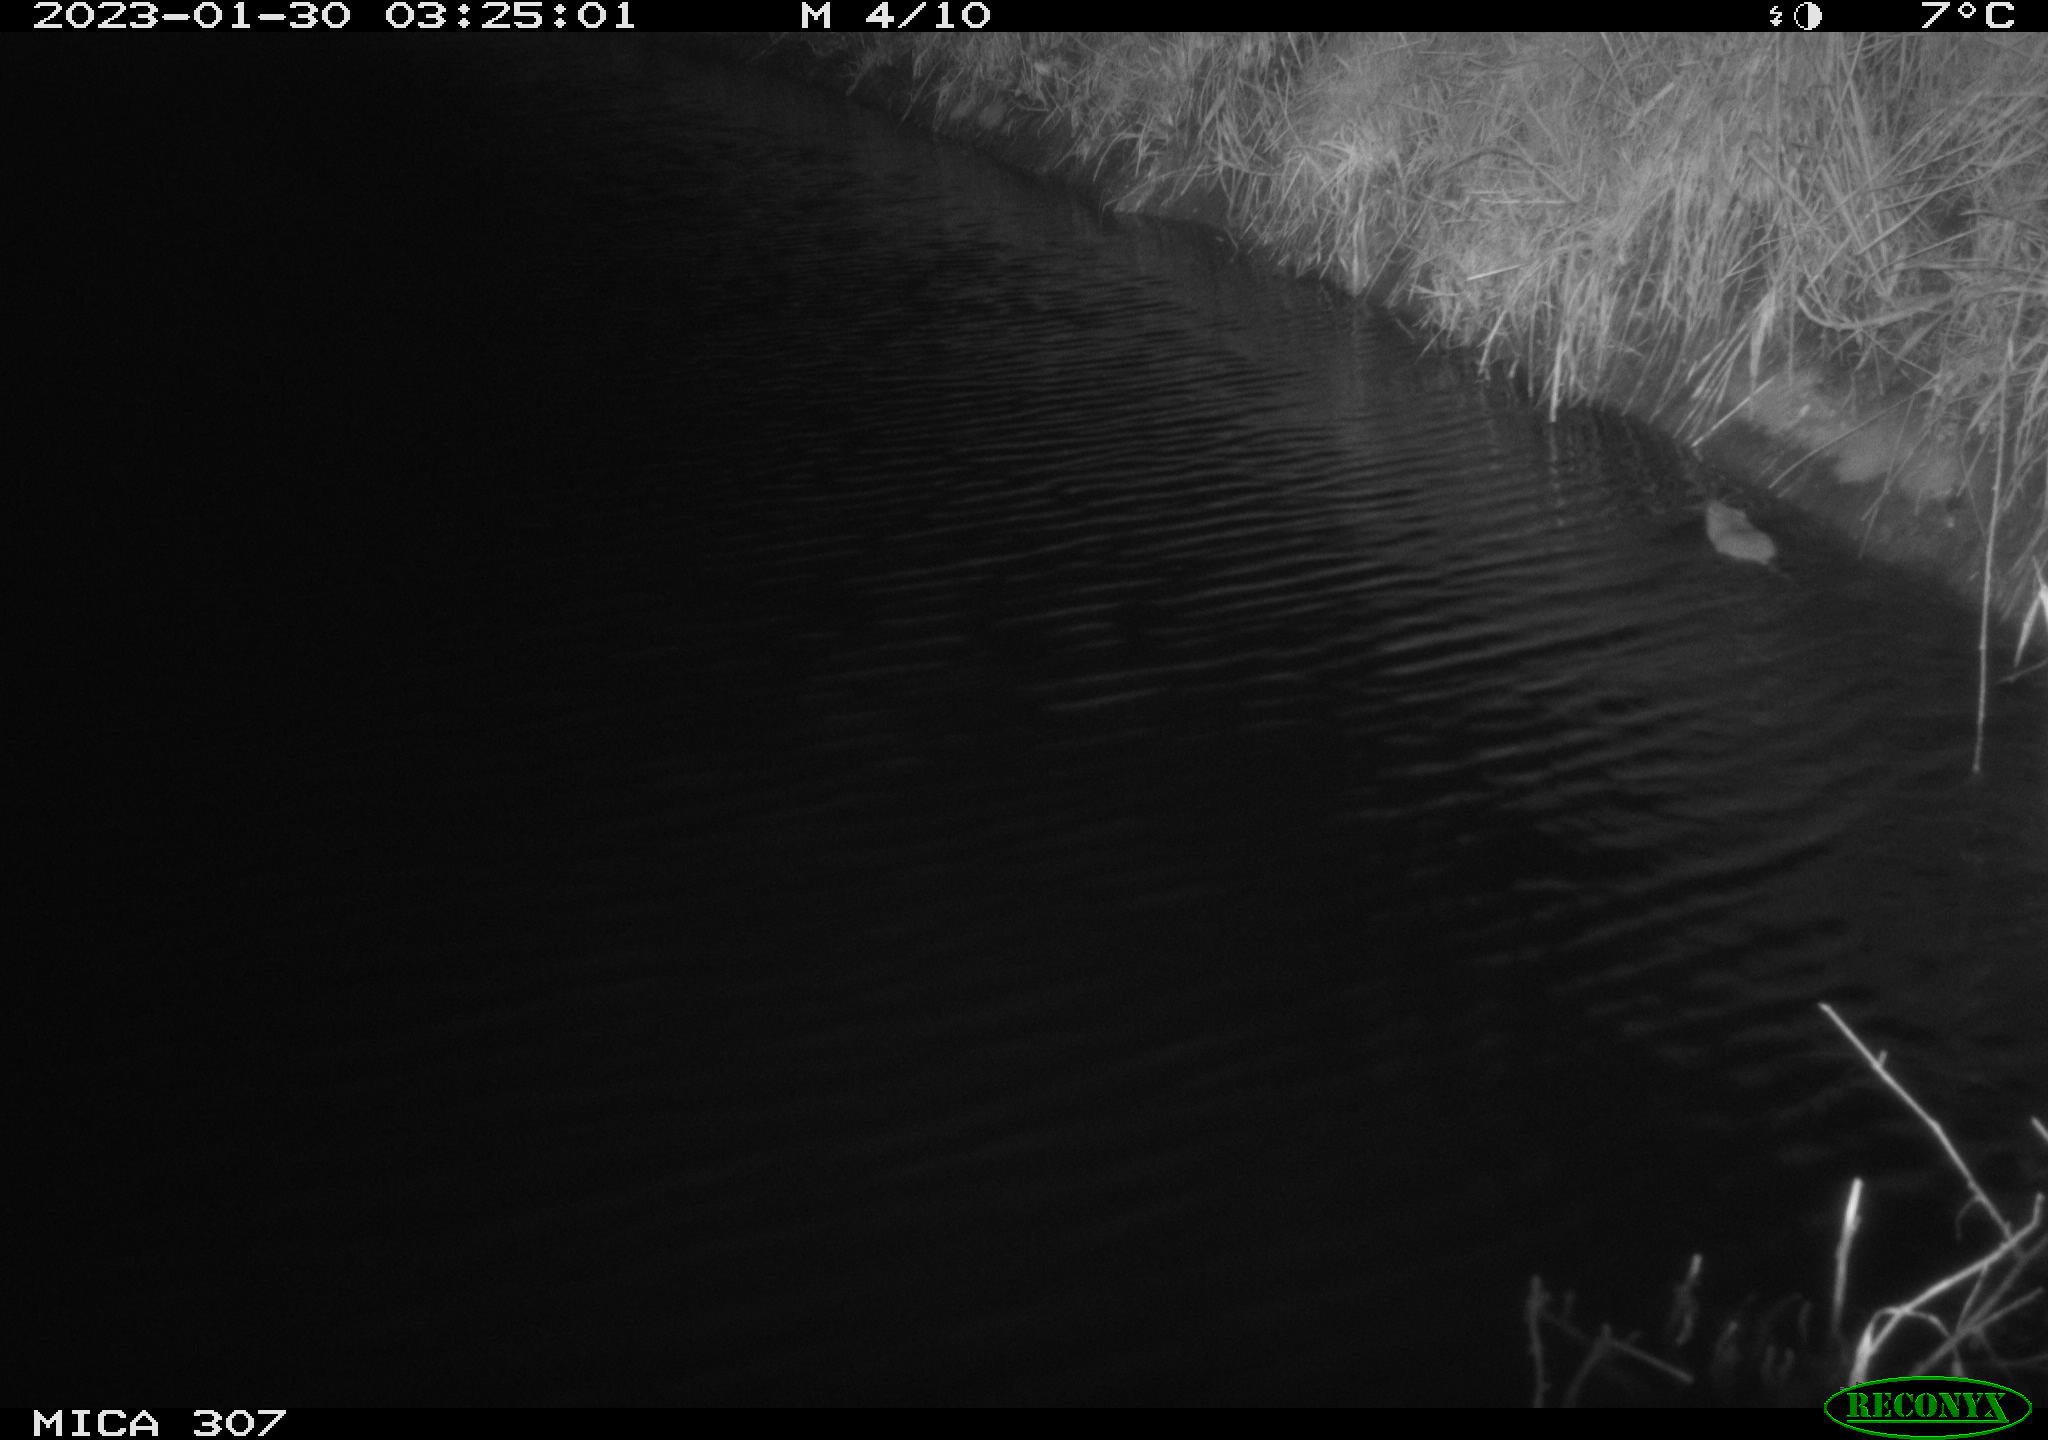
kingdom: Animalia
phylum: Chordata
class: Mammalia
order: Rodentia
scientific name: Rodentia
